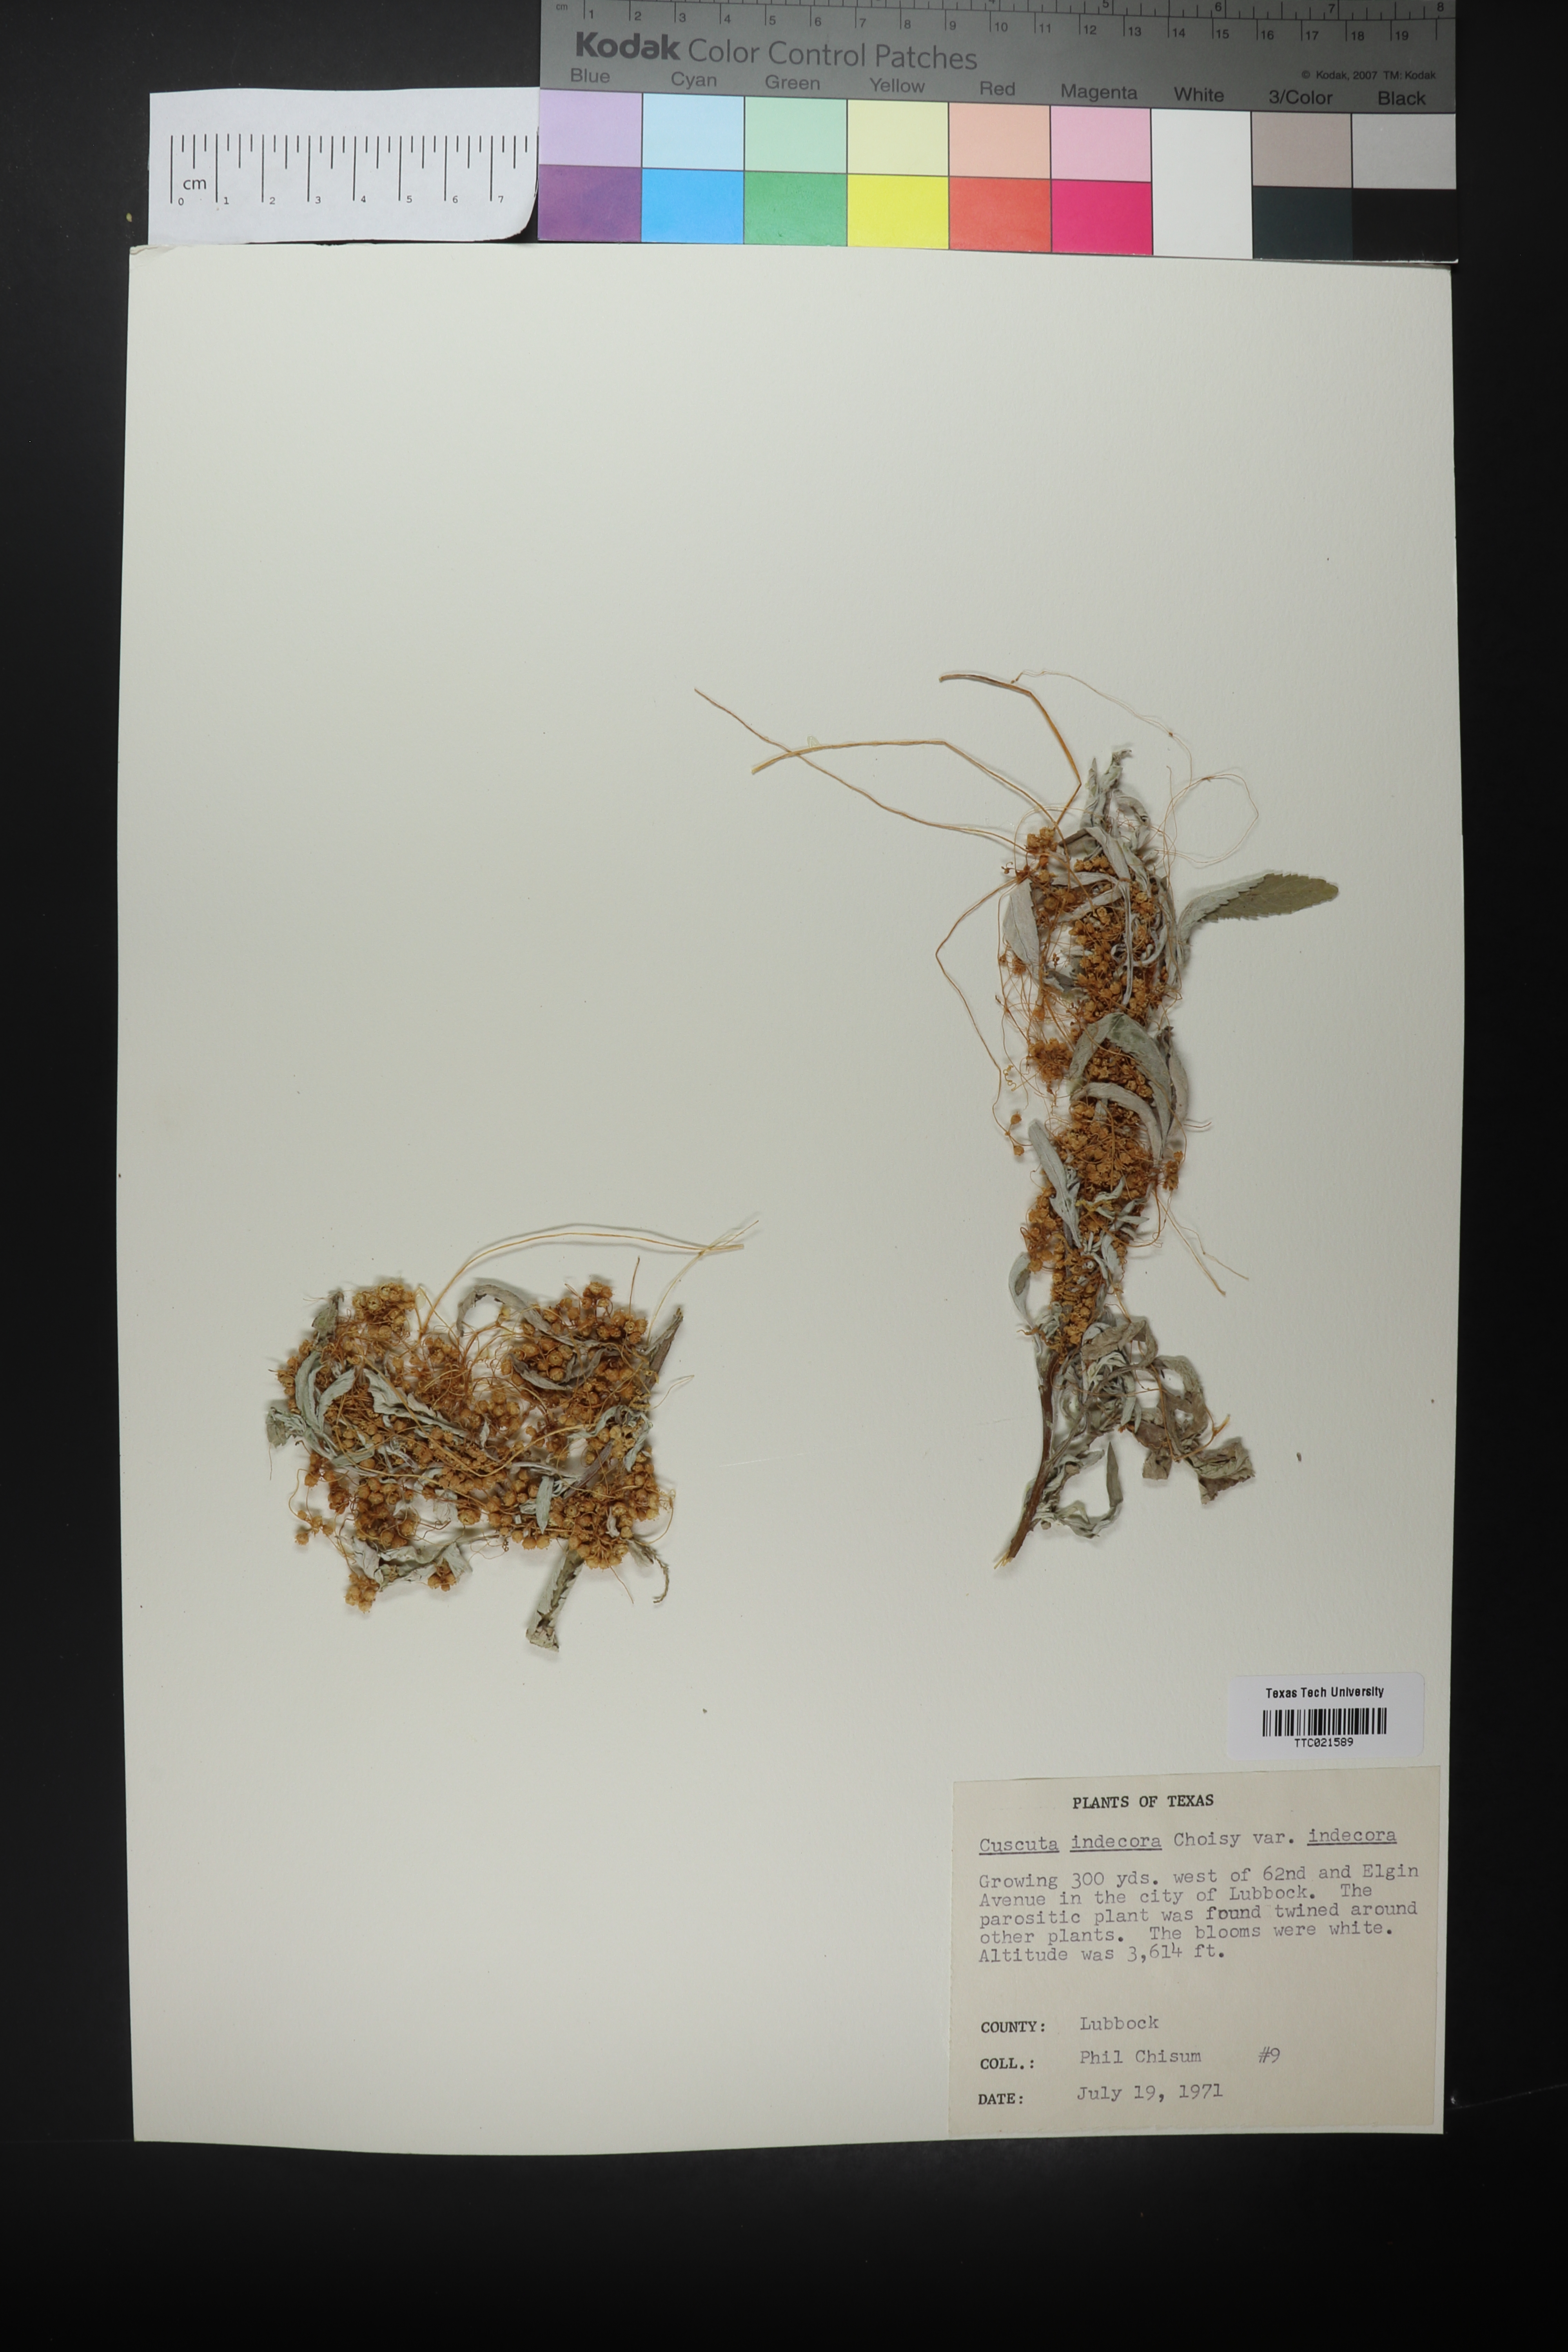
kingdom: Plantae
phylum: Tracheophyta
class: Magnoliopsida
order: Solanales
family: Convolvulaceae
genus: Cuscuta
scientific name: Cuscuta indecora
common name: Large-seed dodder
